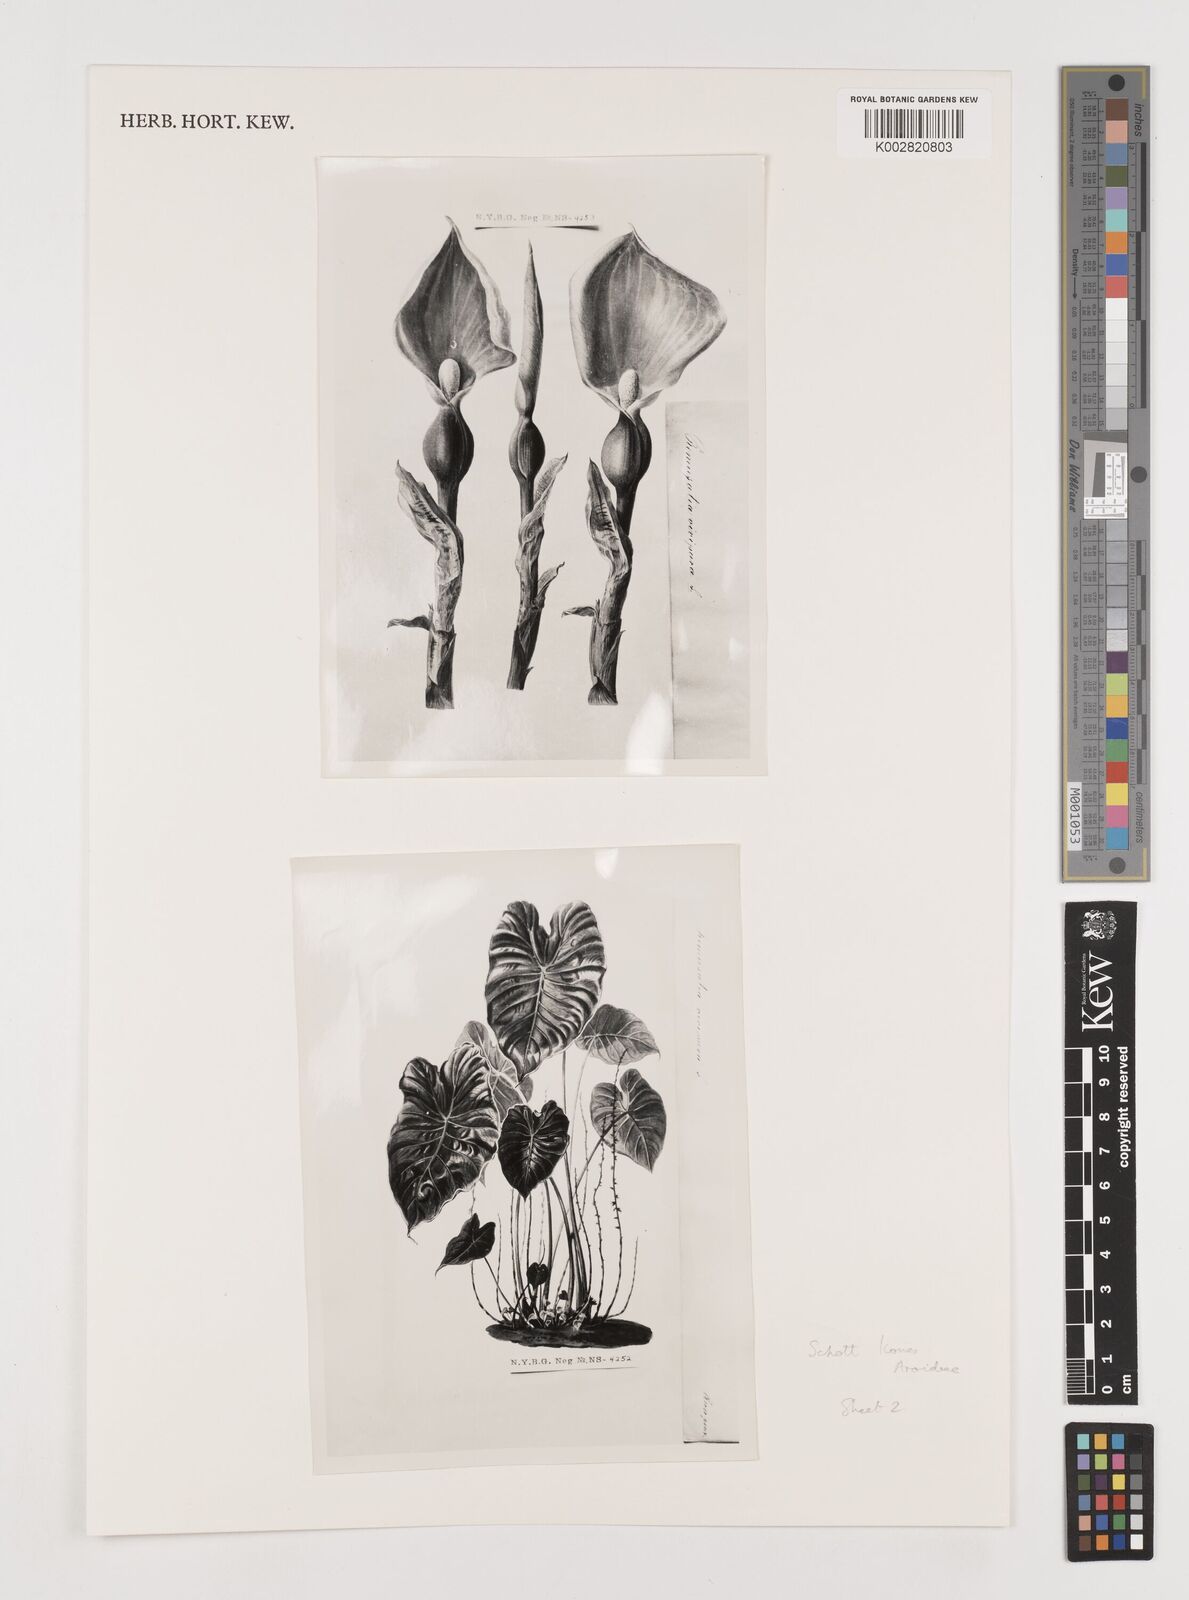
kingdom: Plantae
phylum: Tracheophyta
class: Liliopsida
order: Alismatales
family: Araceae
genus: Remusatia
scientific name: Remusatia vivipara
